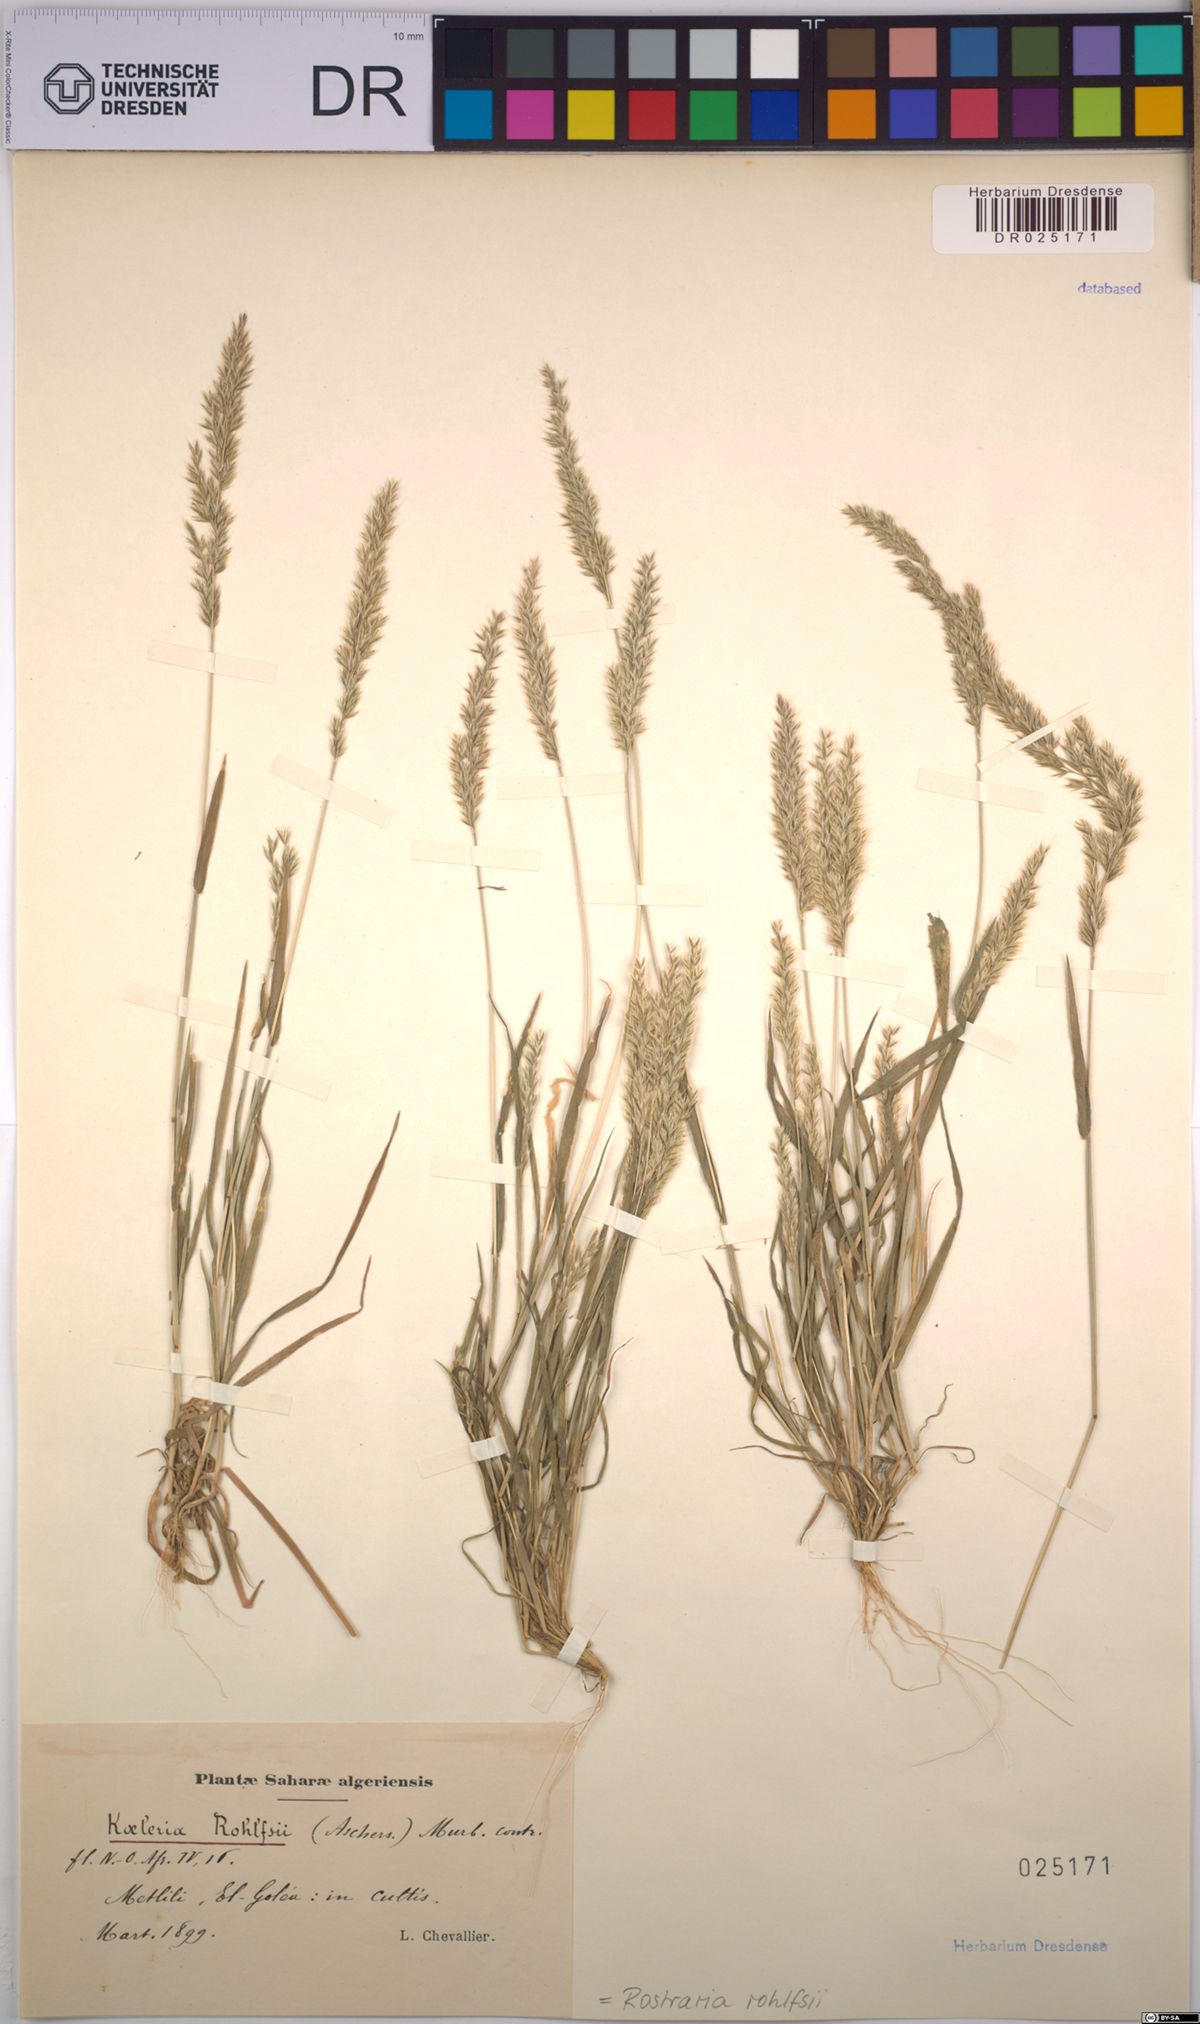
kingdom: Plantae
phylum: Tracheophyta
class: Liliopsida
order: Poales
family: Poaceae
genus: Rostraria
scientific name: Rostraria rohlfsii
